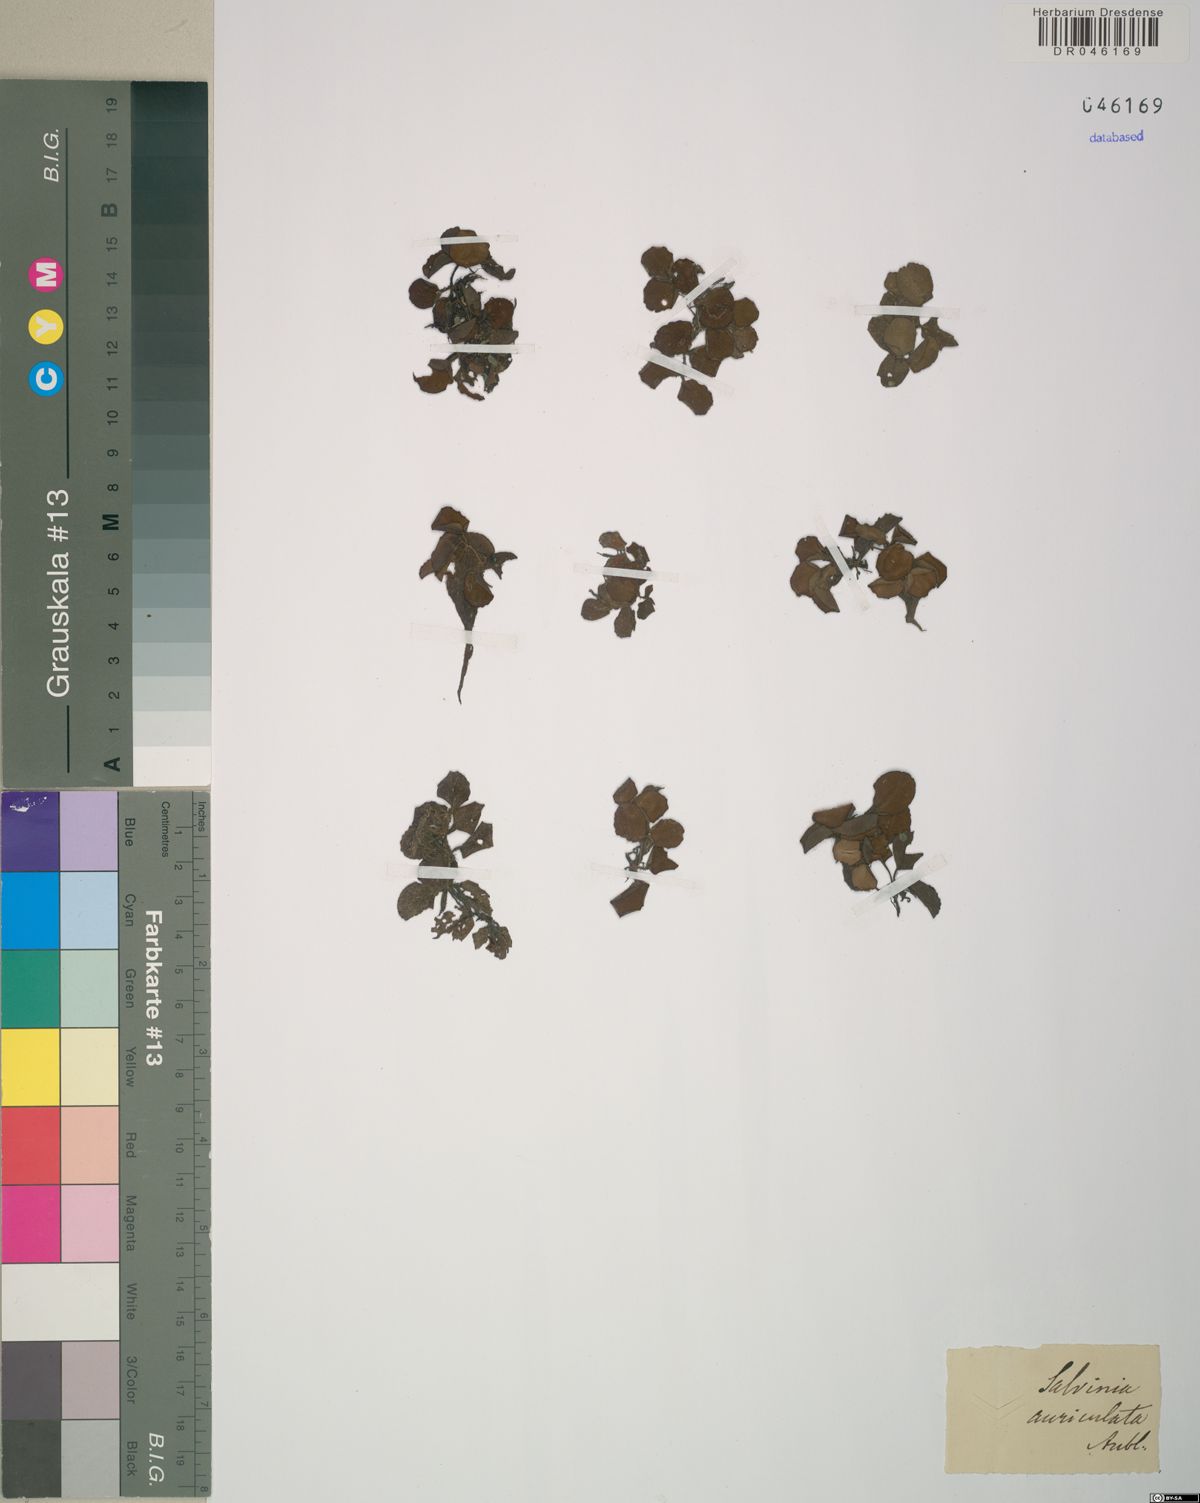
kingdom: Plantae
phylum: Tracheophyta
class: Polypodiopsida
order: Salviniales
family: Salviniaceae
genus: Salvinia
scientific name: Salvinia auriculata
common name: African payal
